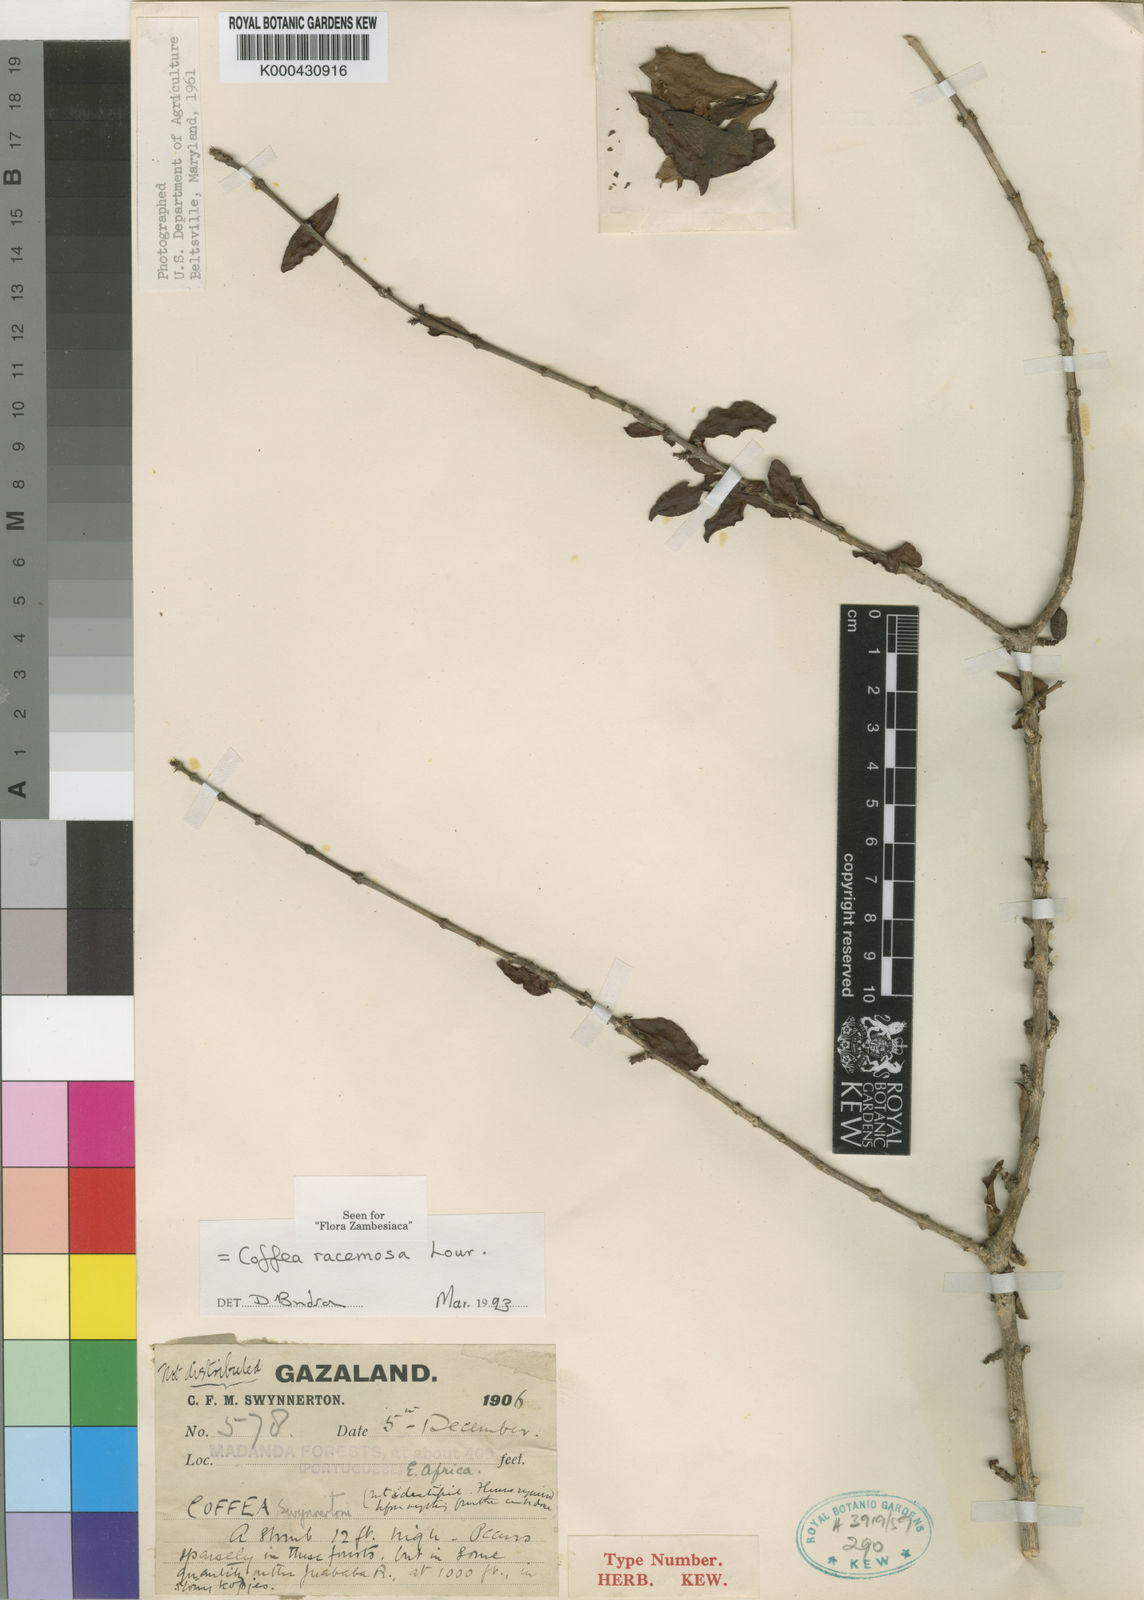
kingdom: Plantae
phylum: Tracheophyta
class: Magnoliopsida
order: Gentianales
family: Rubiaceae
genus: Coffea
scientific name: Coffea racemosa
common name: Inhambane coffee
